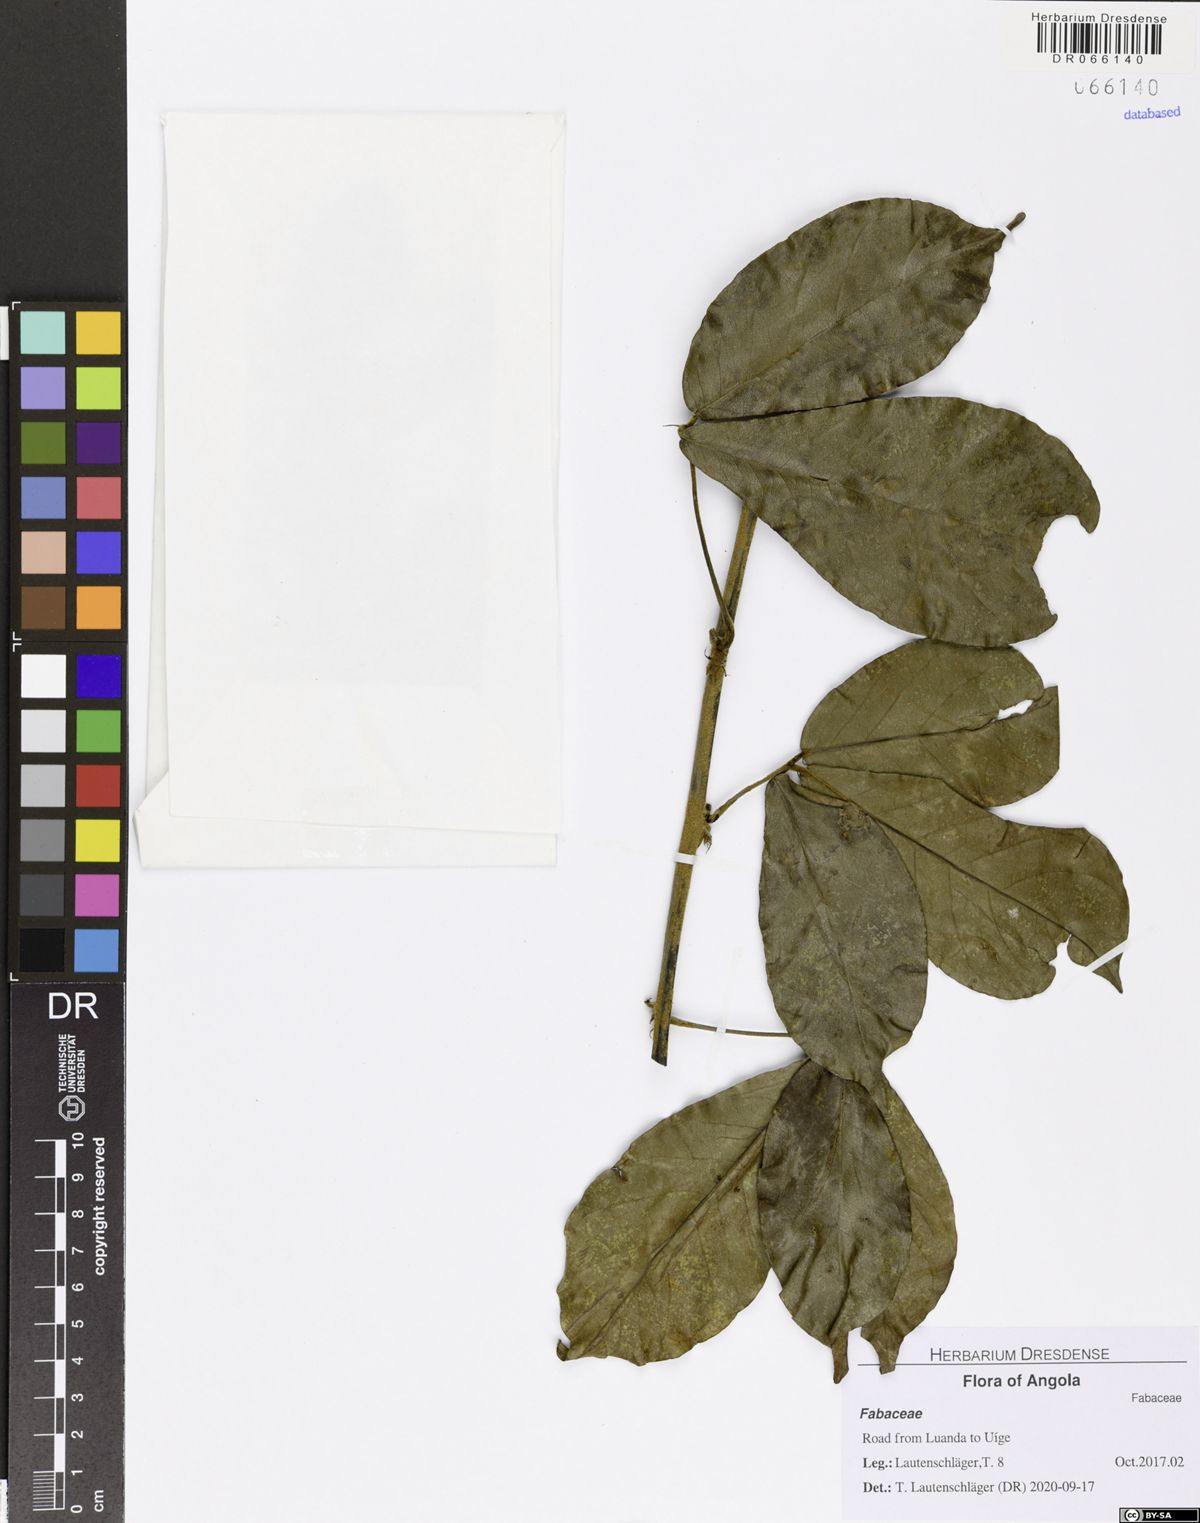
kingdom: Plantae
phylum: Tracheophyta
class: Magnoliopsida
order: Fabales
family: Fabaceae
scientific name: Fabaceae
